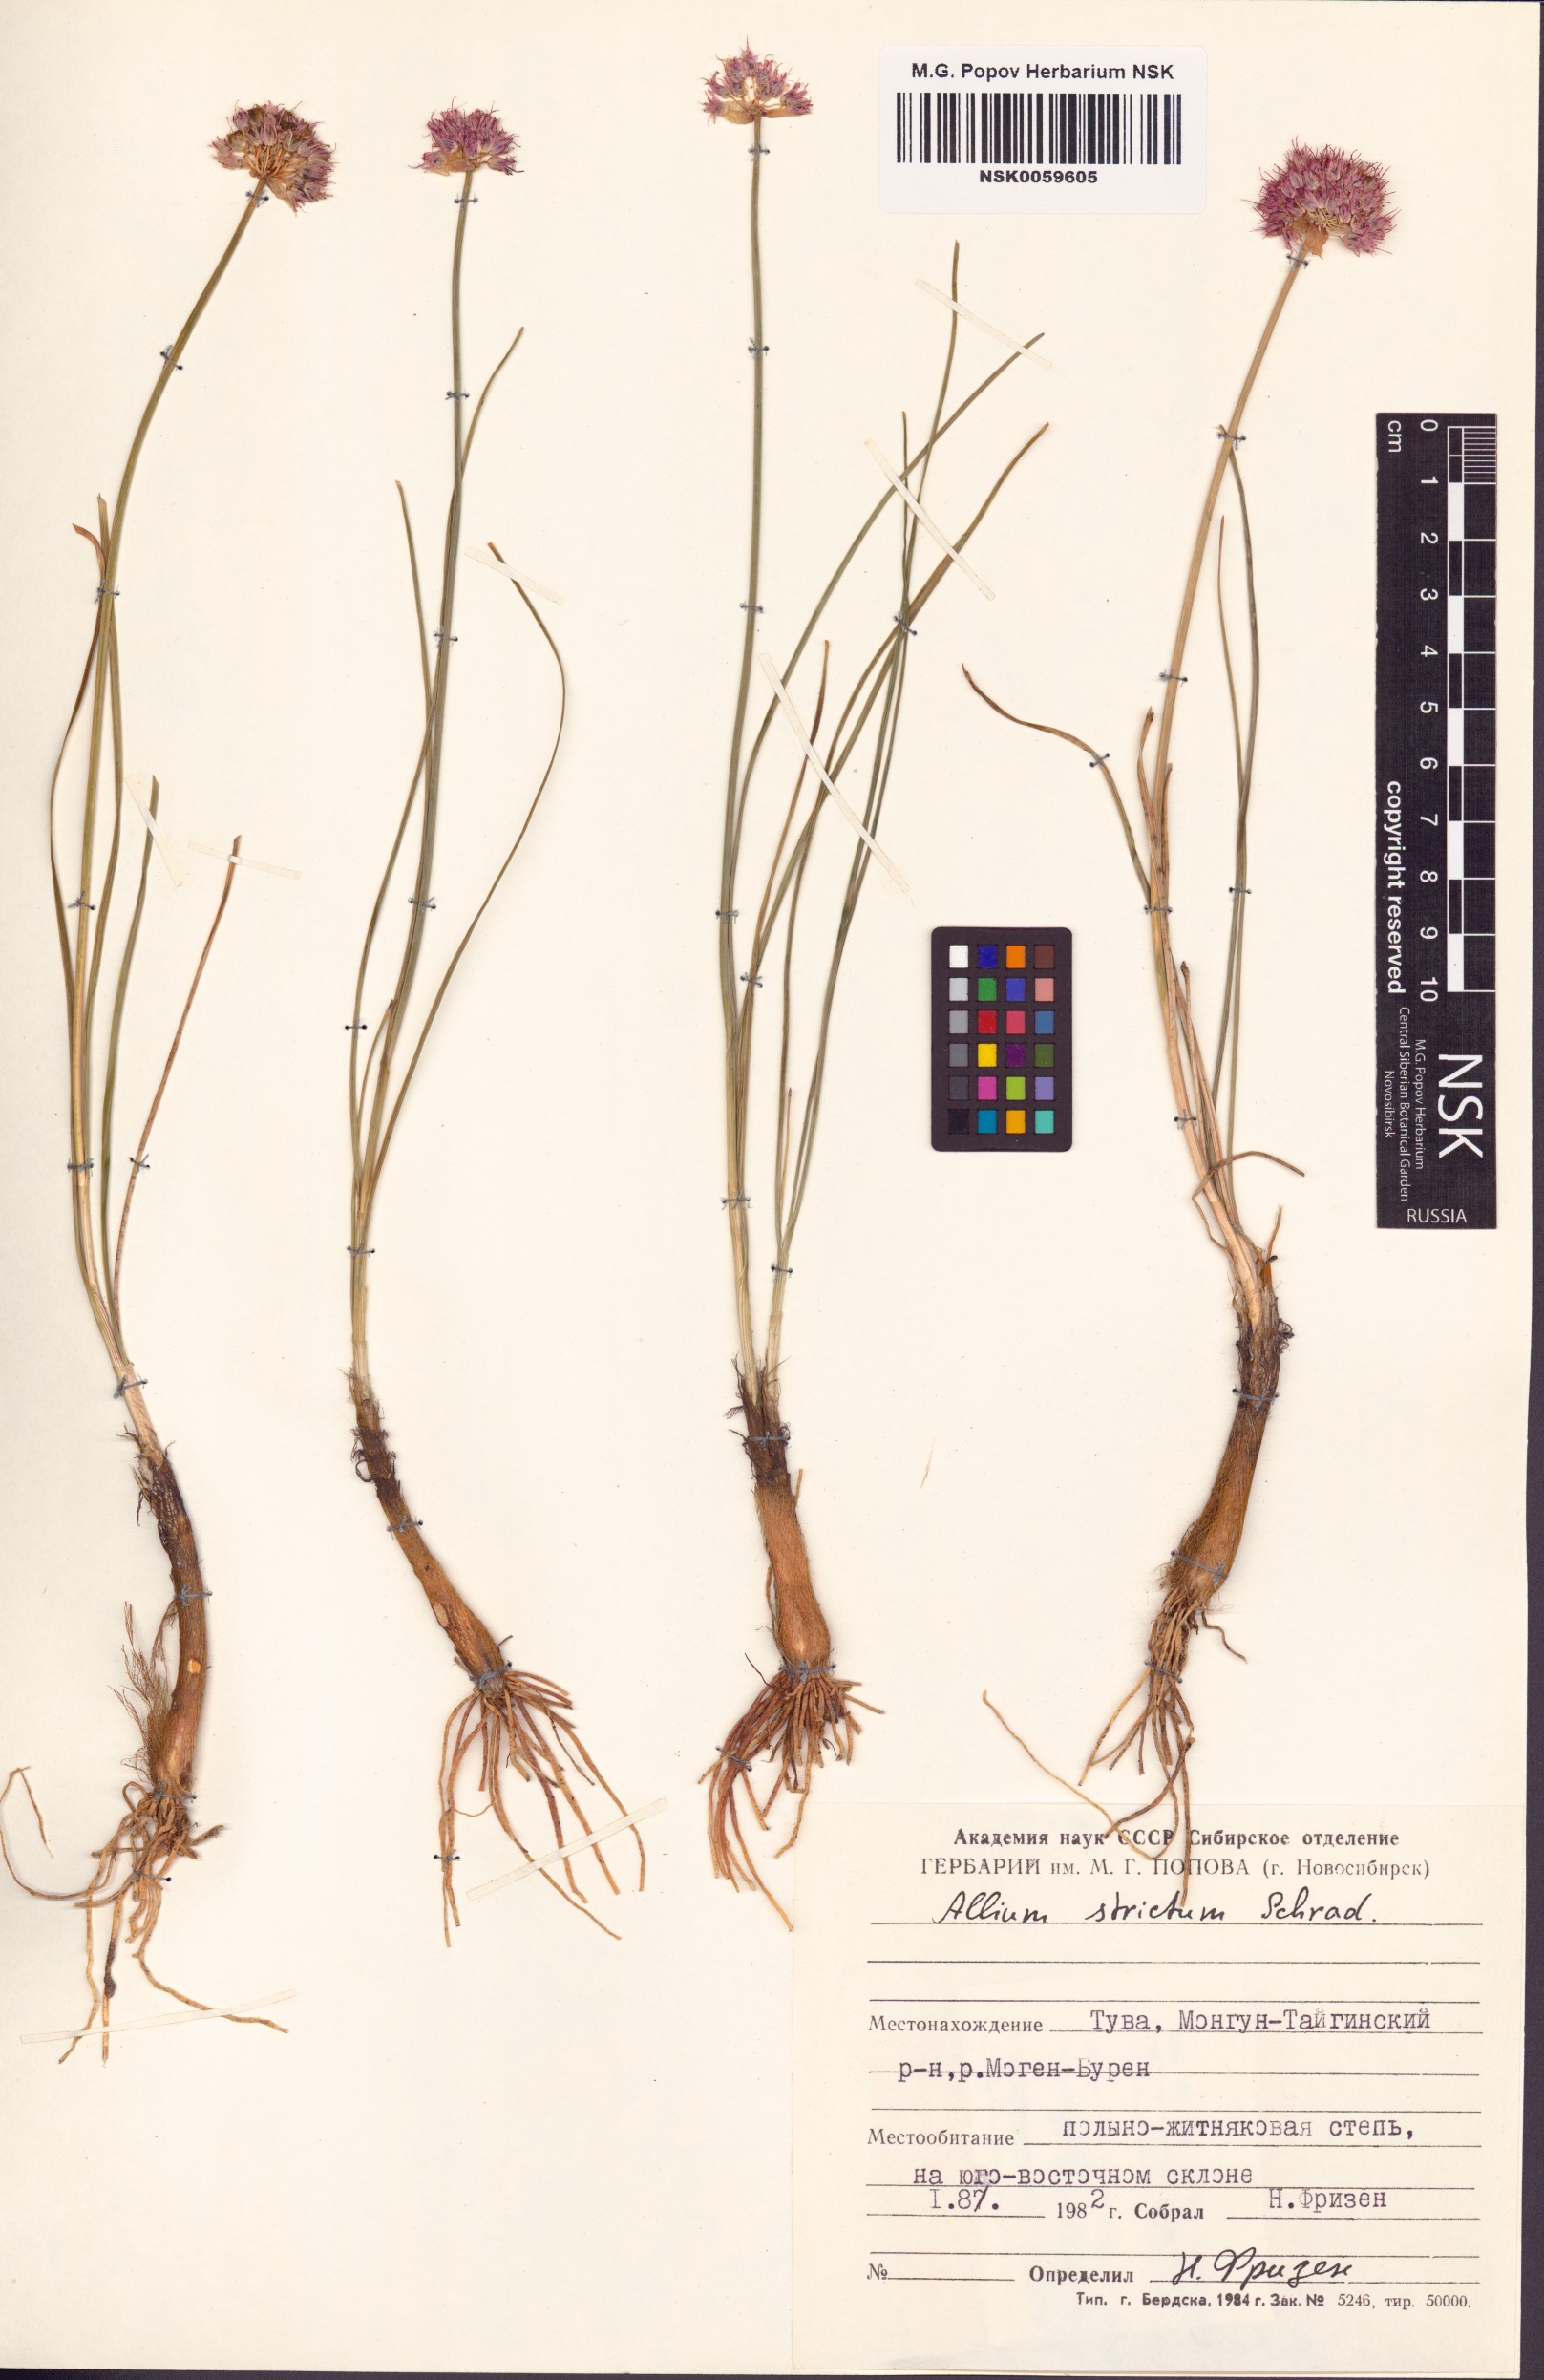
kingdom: Plantae
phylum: Tracheophyta
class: Liliopsida
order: Asparagales
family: Amaryllidaceae
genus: Allium
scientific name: Allium strictum
